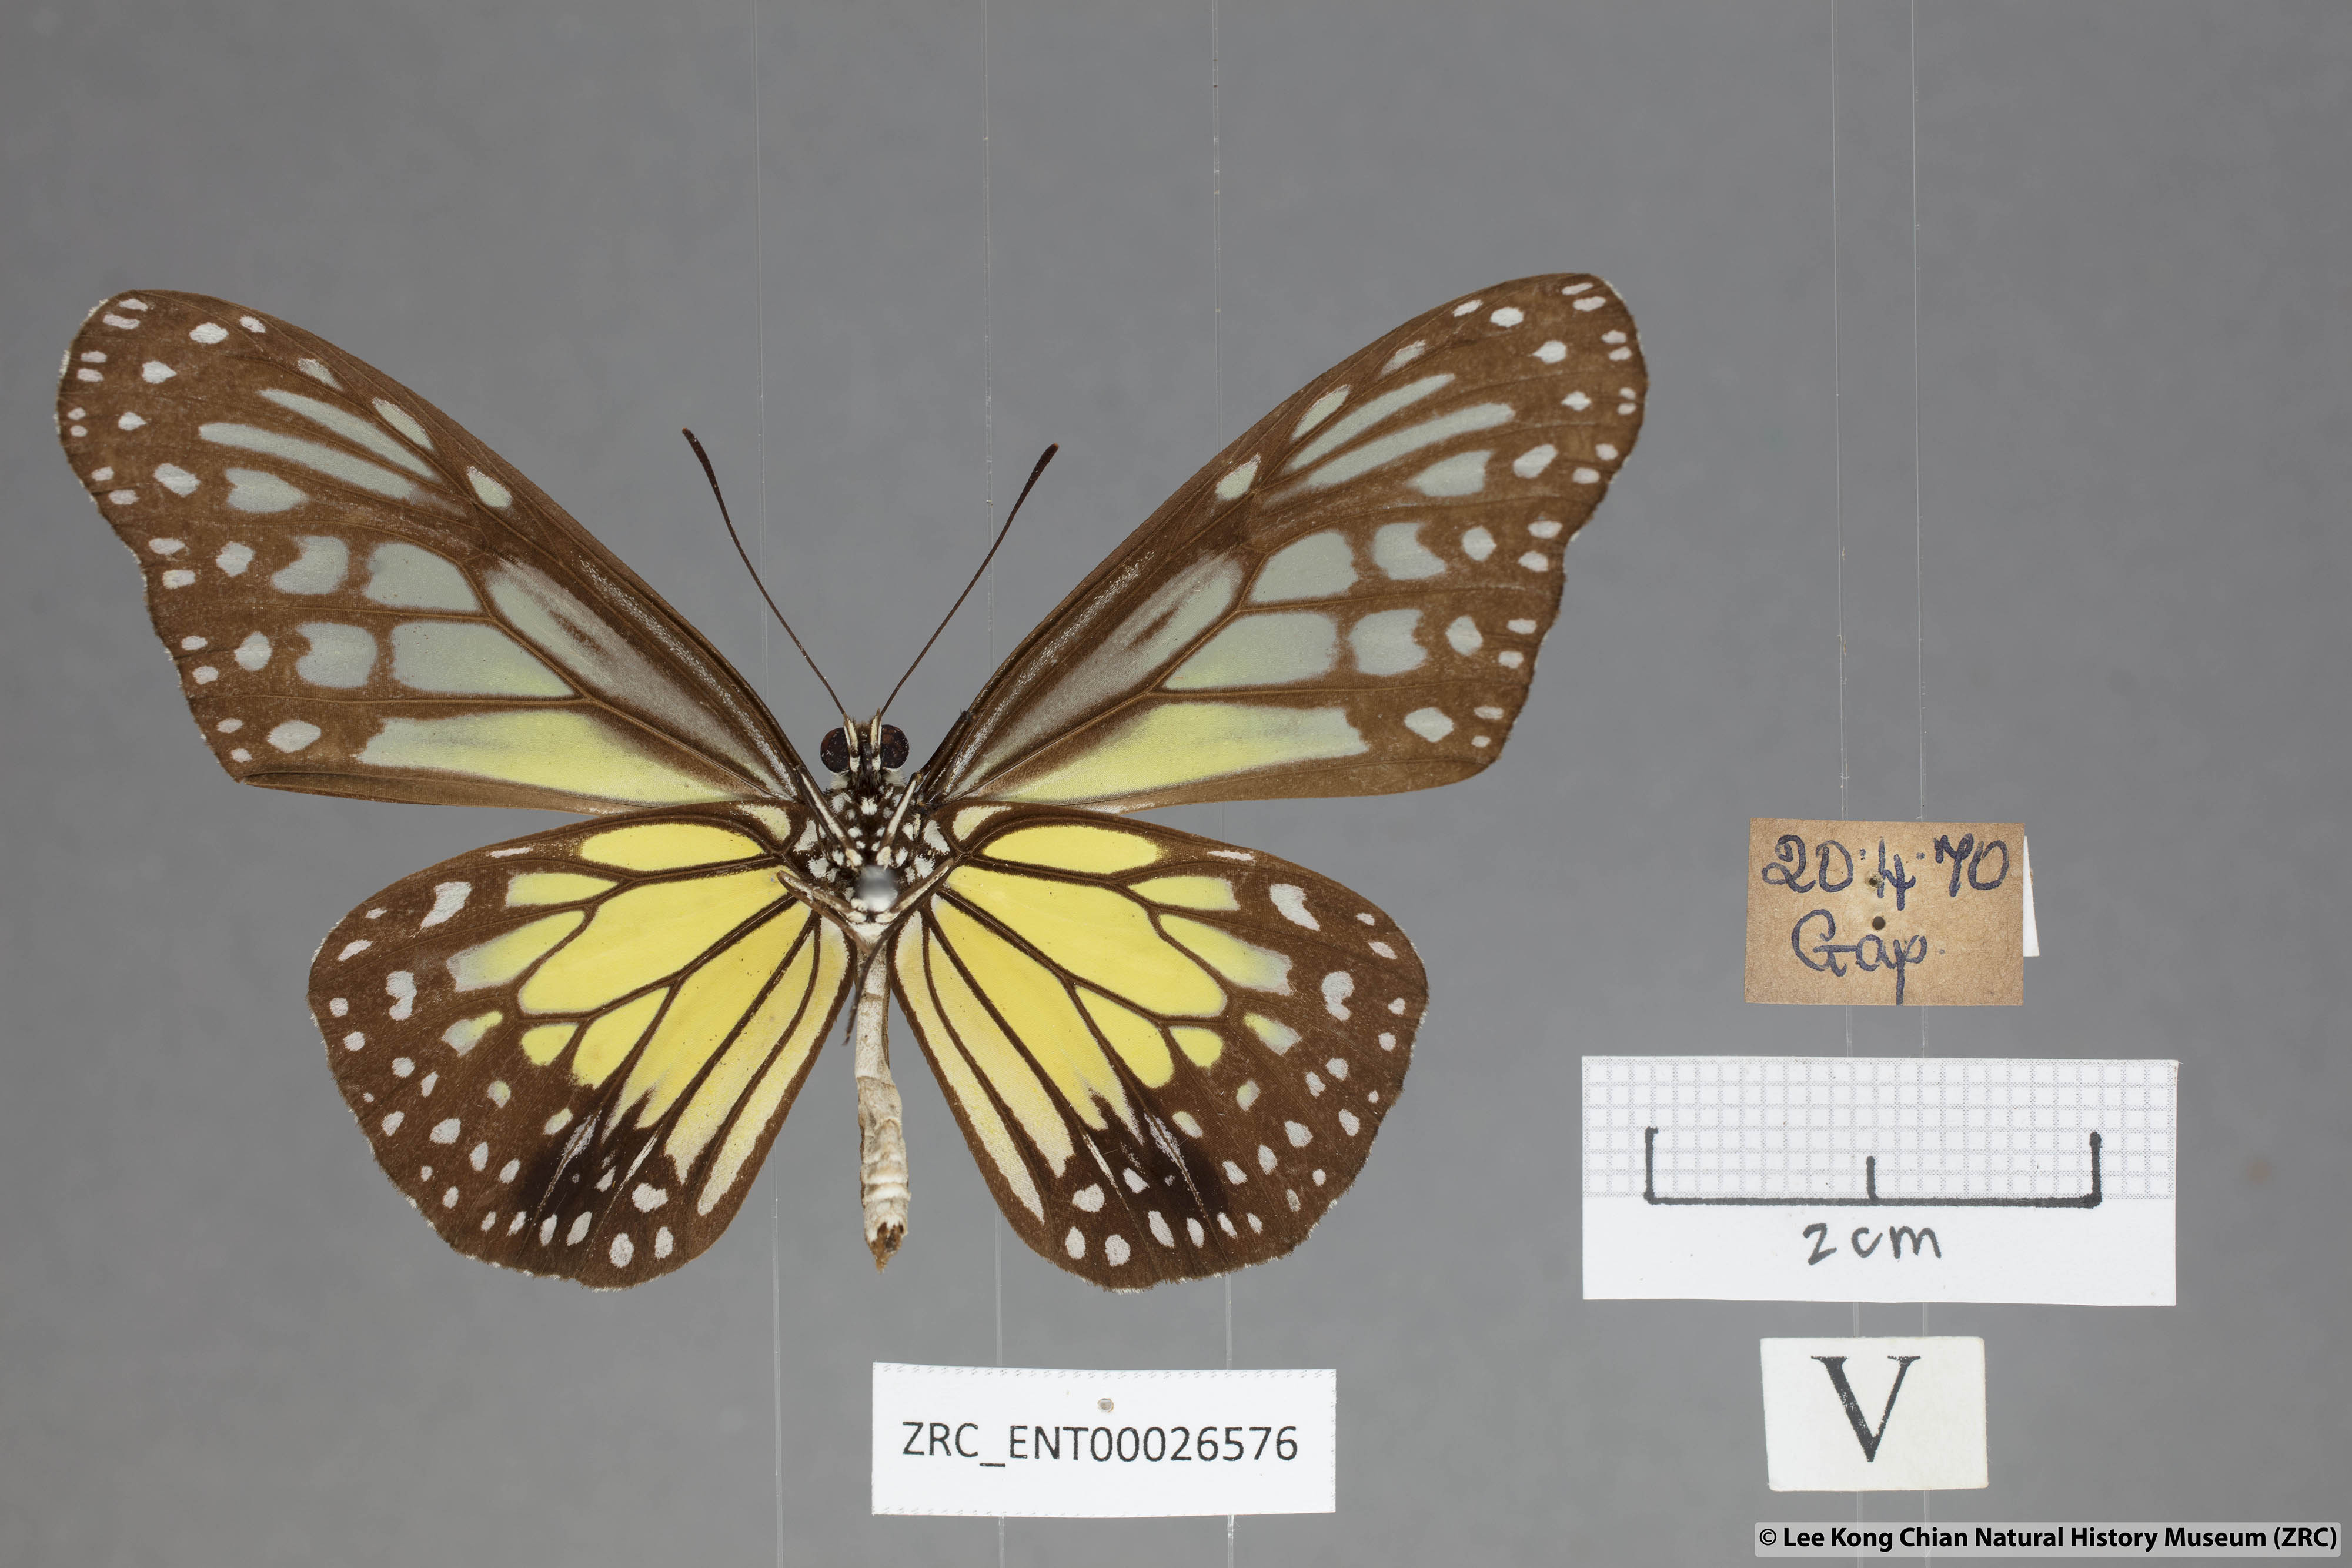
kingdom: Animalia
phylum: Arthropoda
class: Insecta
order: Lepidoptera
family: Nymphalidae
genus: Parantica
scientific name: Parantica aspasia
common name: Yellow glassy tiger
